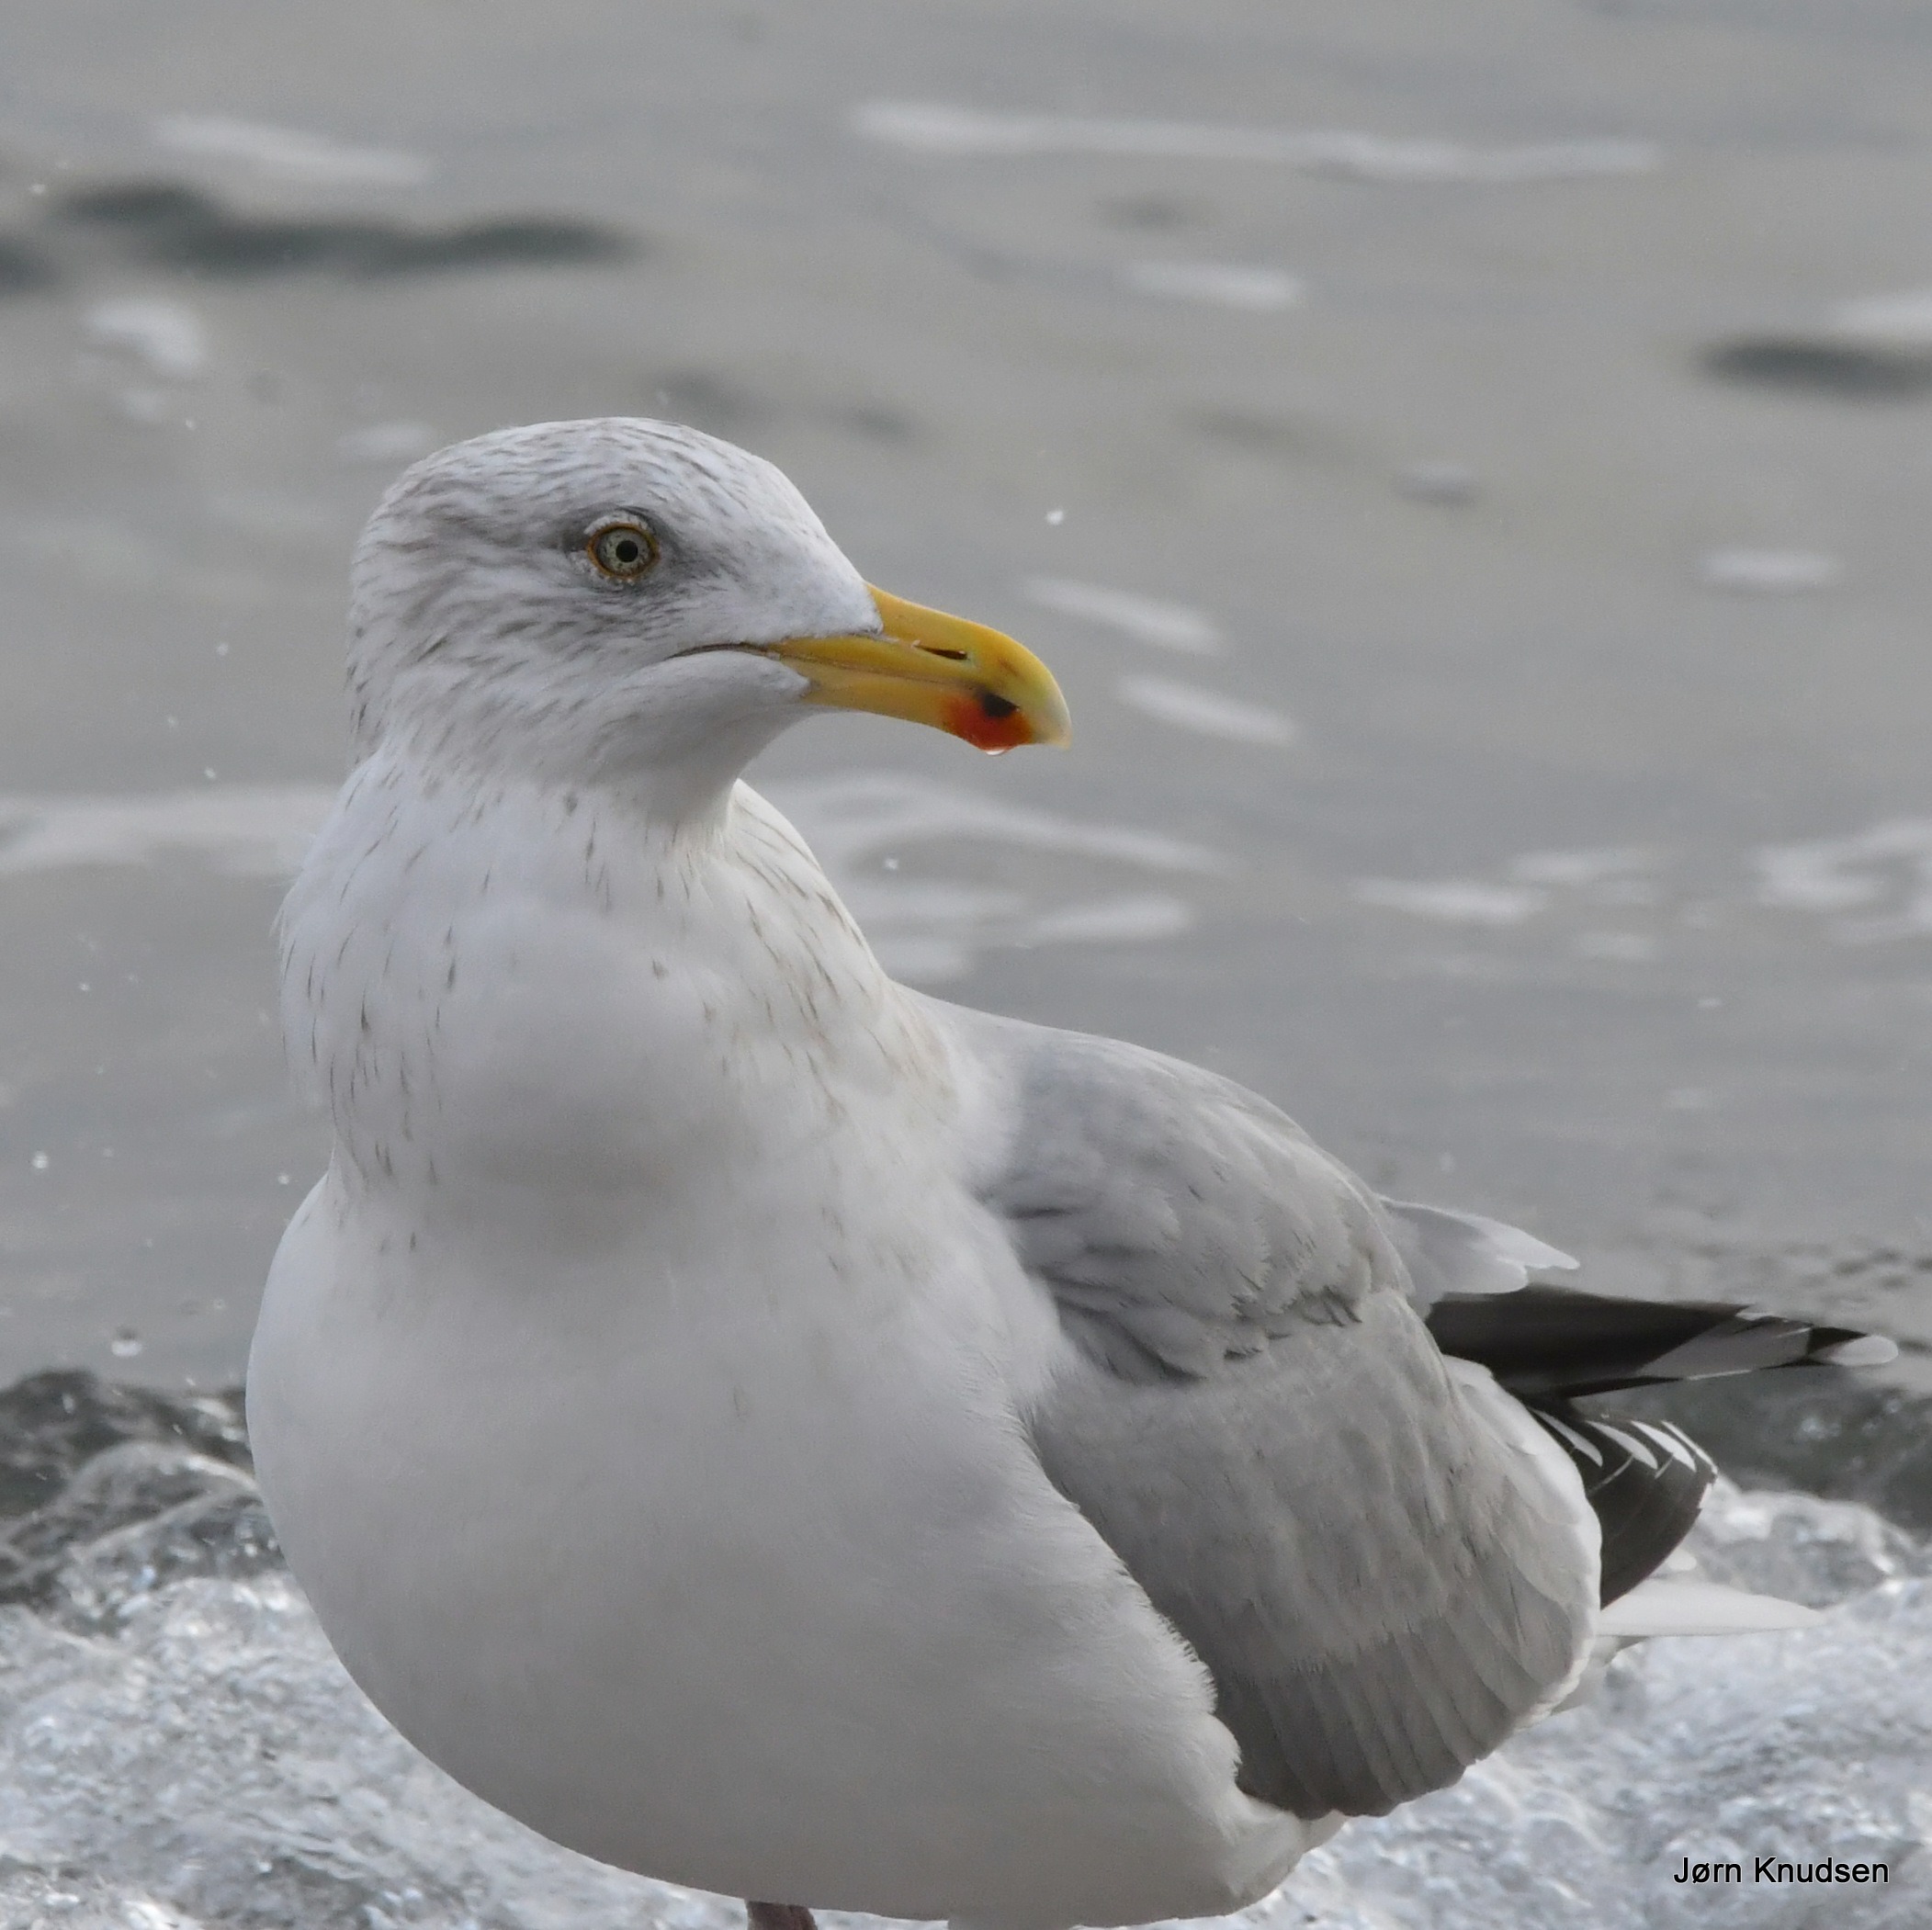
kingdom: Animalia
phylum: Chordata
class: Aves
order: Charadriiformes
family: Laridae
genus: Larus
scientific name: Larus argentatus
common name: Sølvmåge
